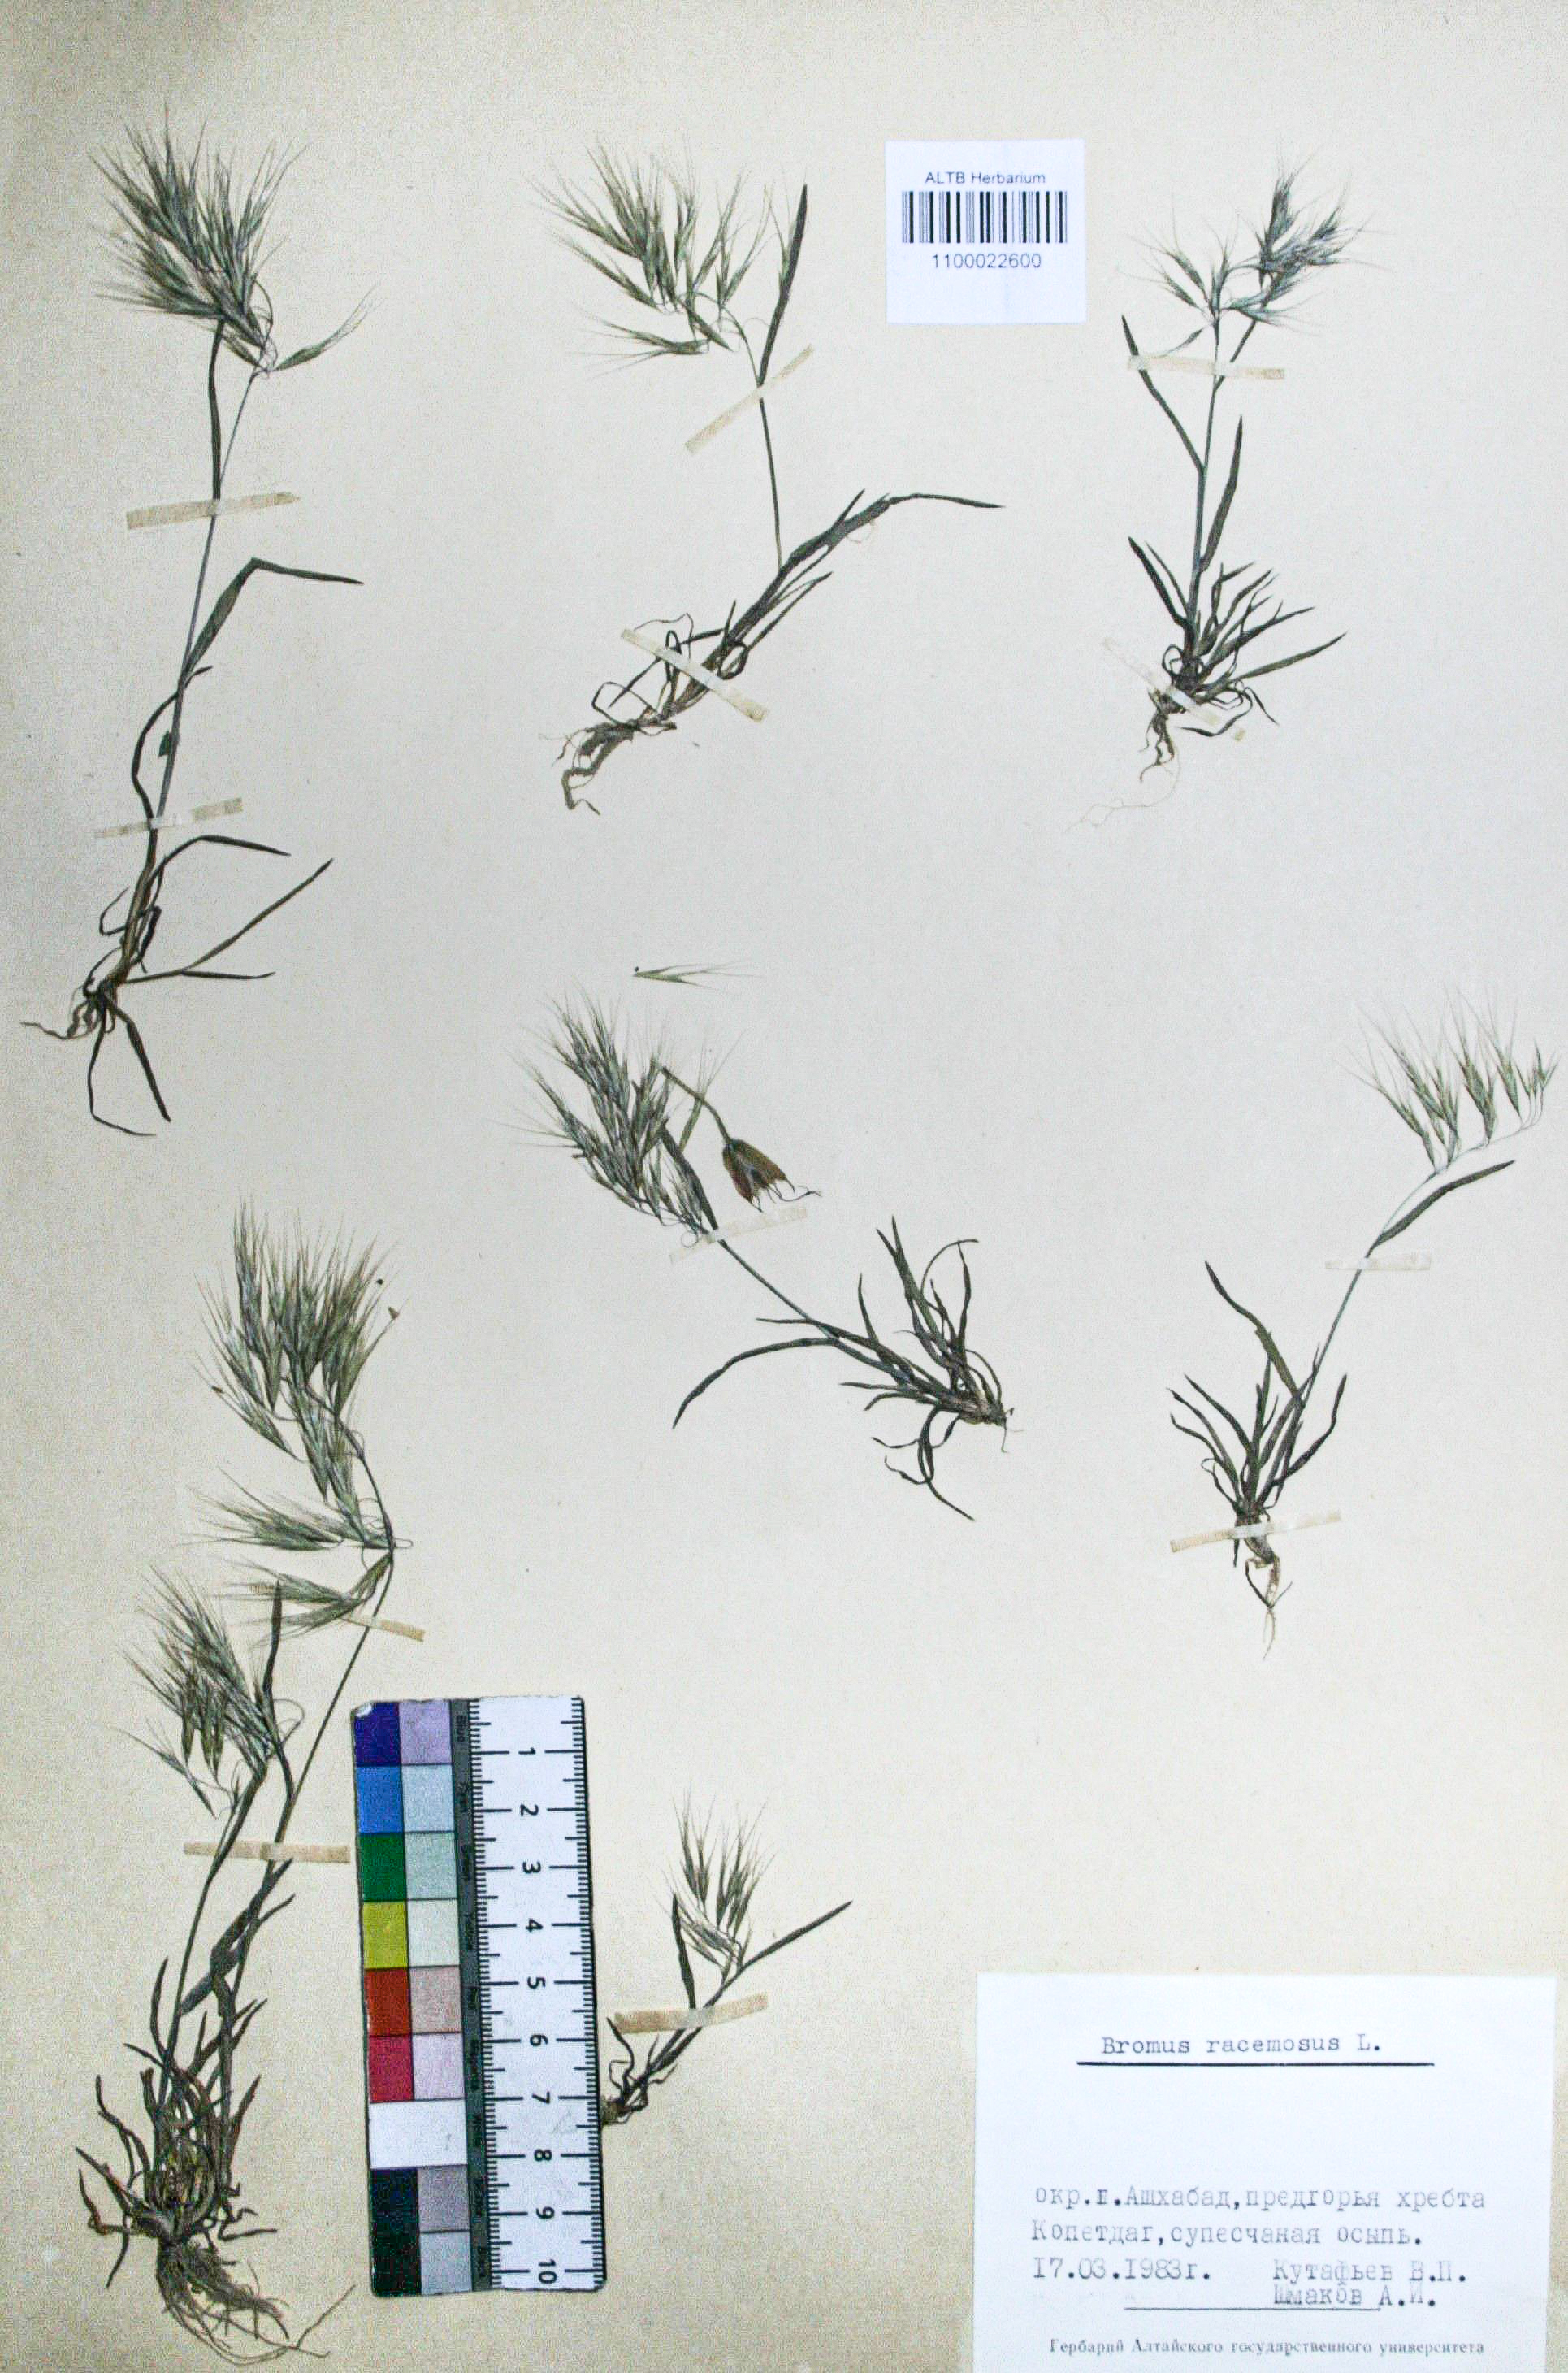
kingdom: Plantae
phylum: Tracheophyta
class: Liliopsida
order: Poales
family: Poaceae
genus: Bromus
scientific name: Bromus racemosus
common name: Bald brome
